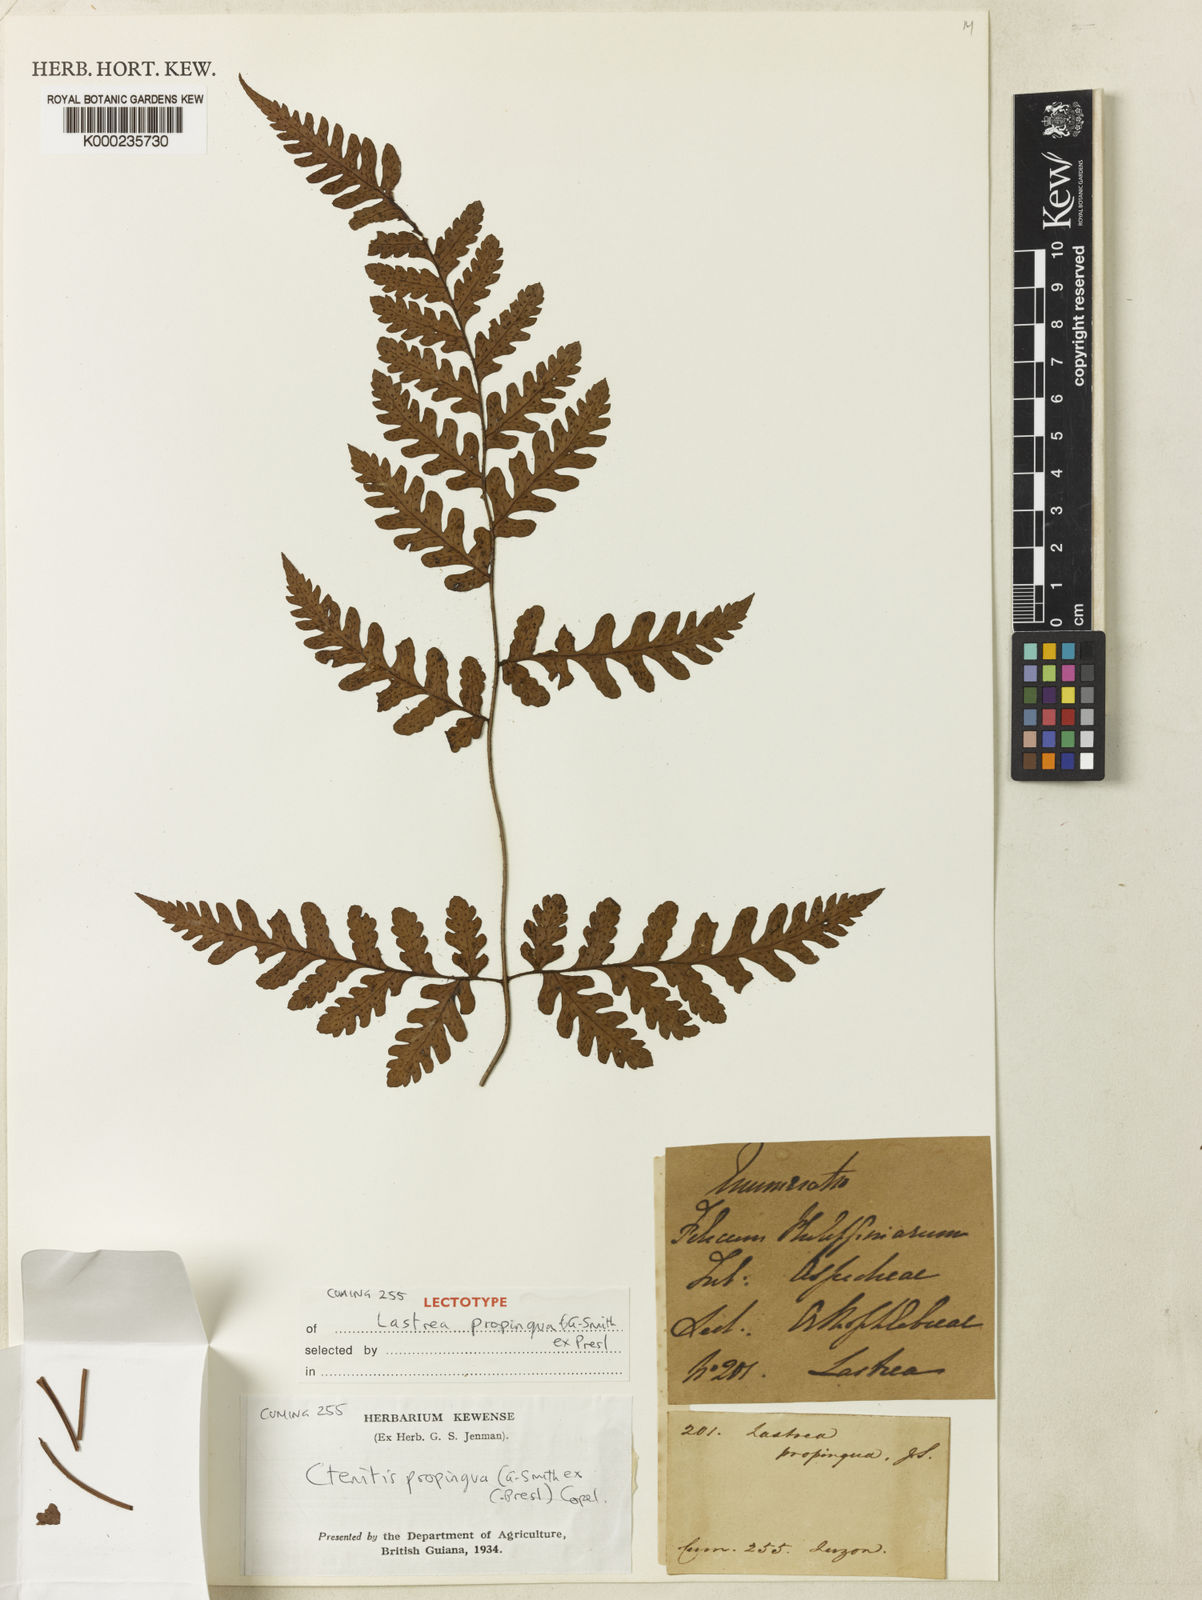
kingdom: Plantae
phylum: Tracheophyta
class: Polypodiopsida
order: Polypodiales
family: Dryopteridaceae
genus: Ctenitis
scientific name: Ctenitis propinqua
